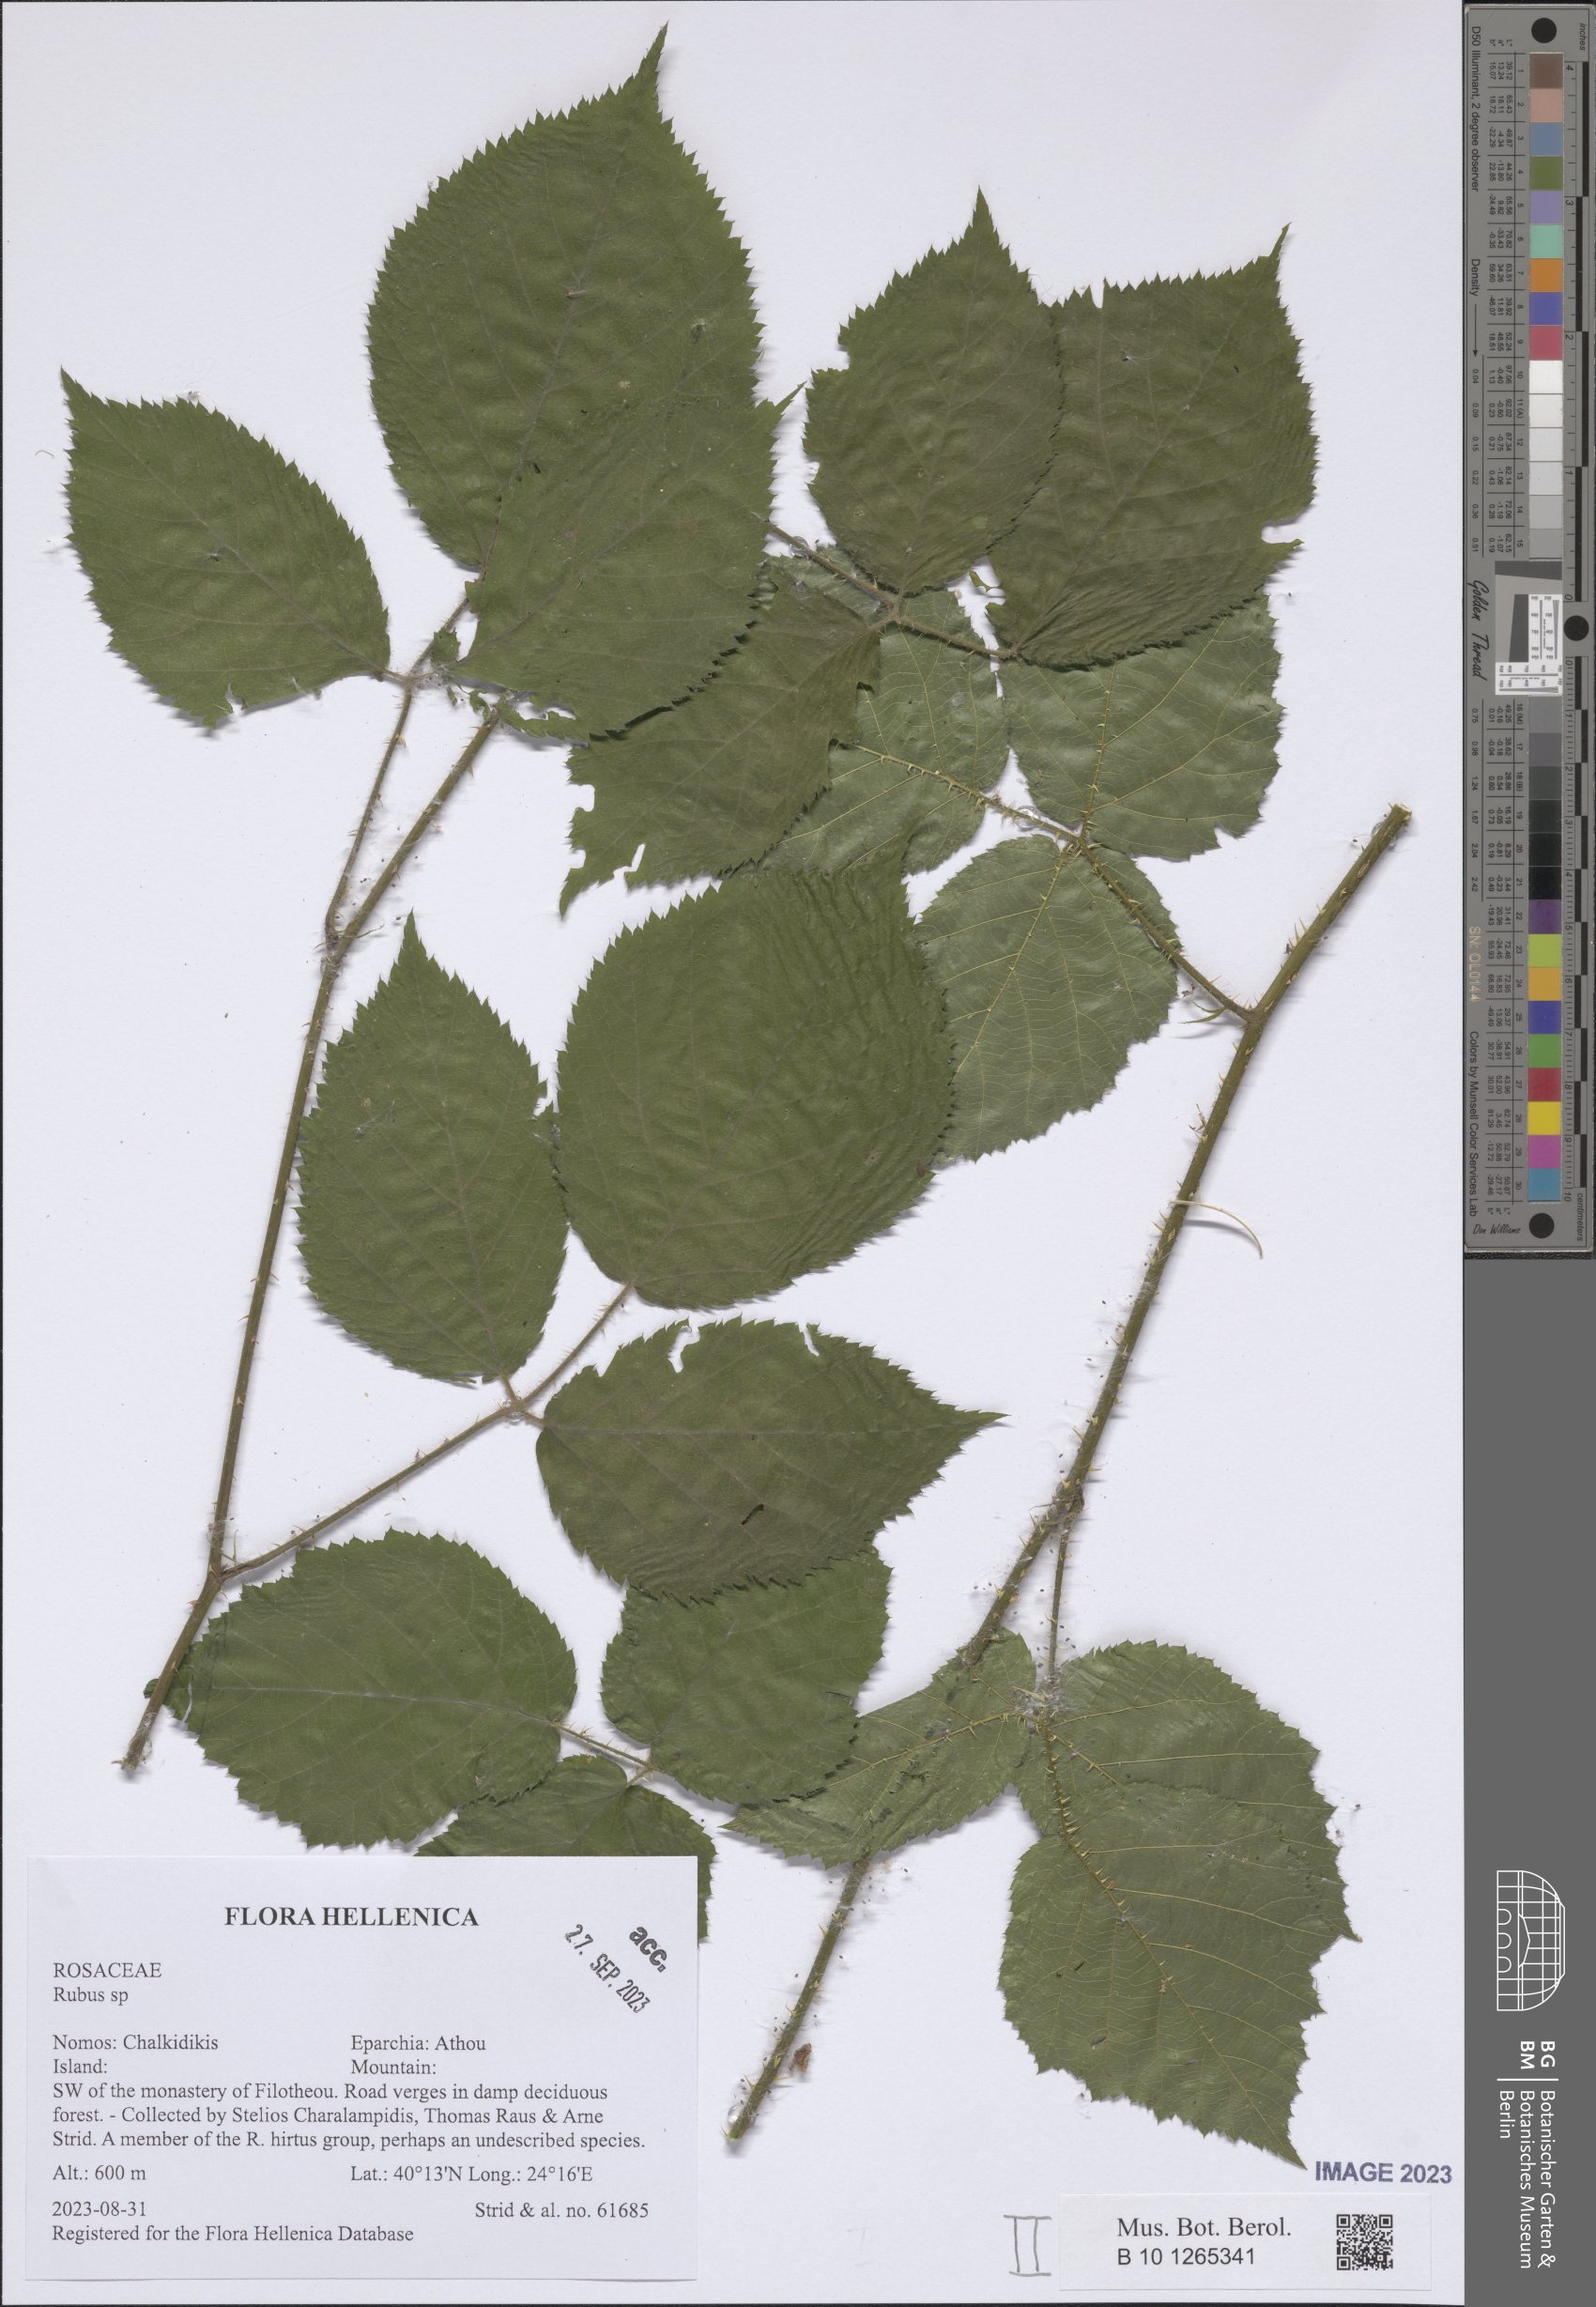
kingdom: Plantae
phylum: Tracheophyta
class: Magnoliopsida
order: Rosales
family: Rosaceae
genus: Rubus
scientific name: Rubus
